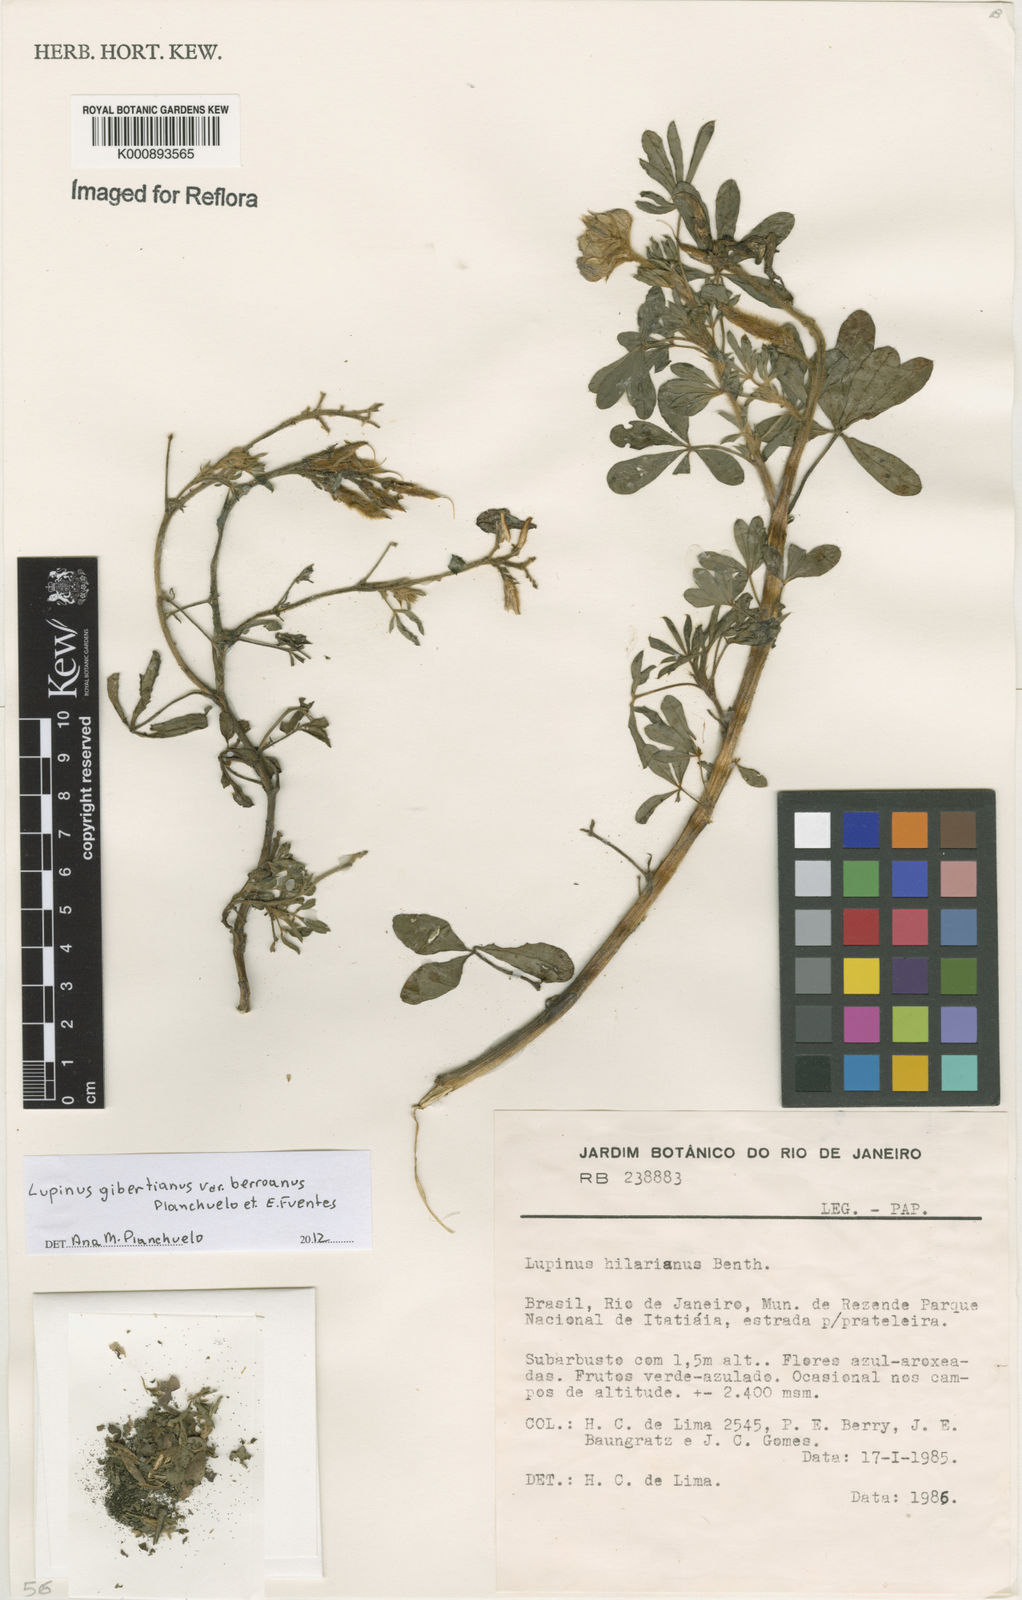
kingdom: Plantae
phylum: Tracheophyta
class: Magnoliopsida
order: Fabales
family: Fabaceae
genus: Lupinus
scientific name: Lupinus heptaphyllus
